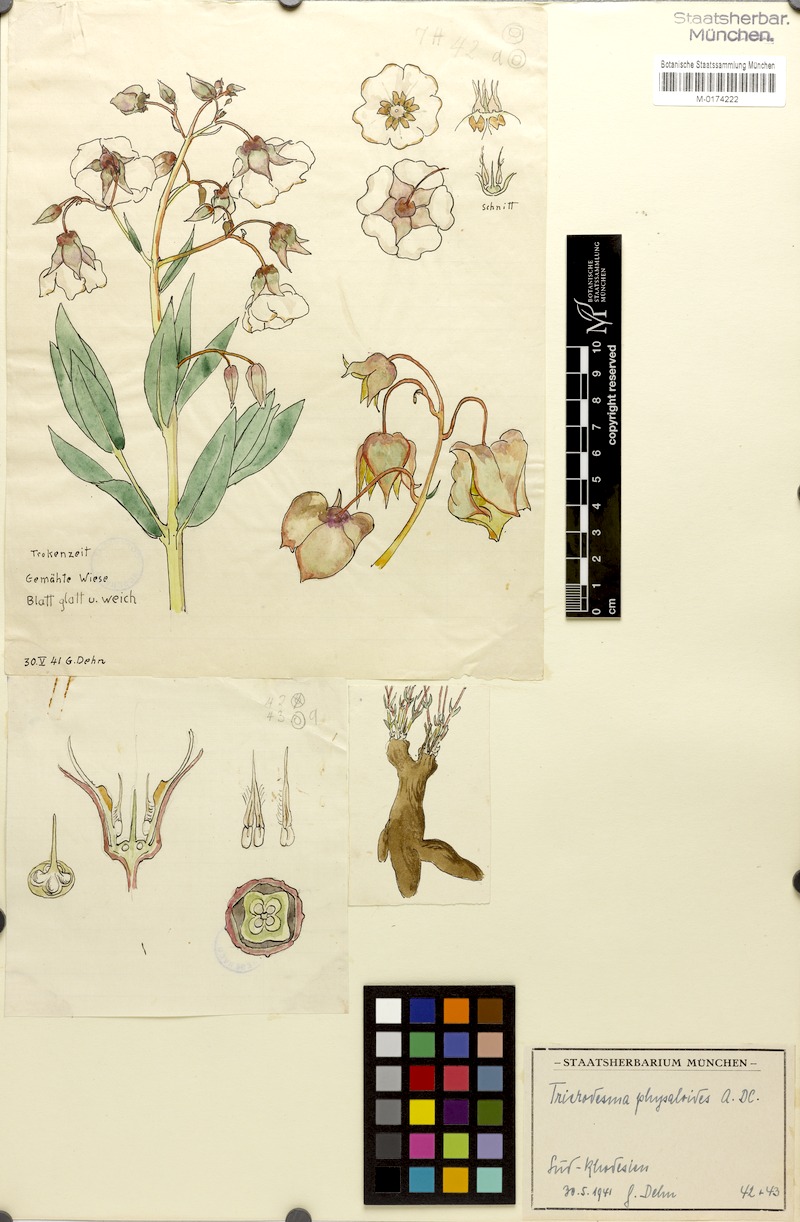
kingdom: Plantae
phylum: Tracheophyta
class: Magnoliopsida
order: Boraginales
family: Boraginaceae
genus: Trichodesma
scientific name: Trichodesma physaloides
